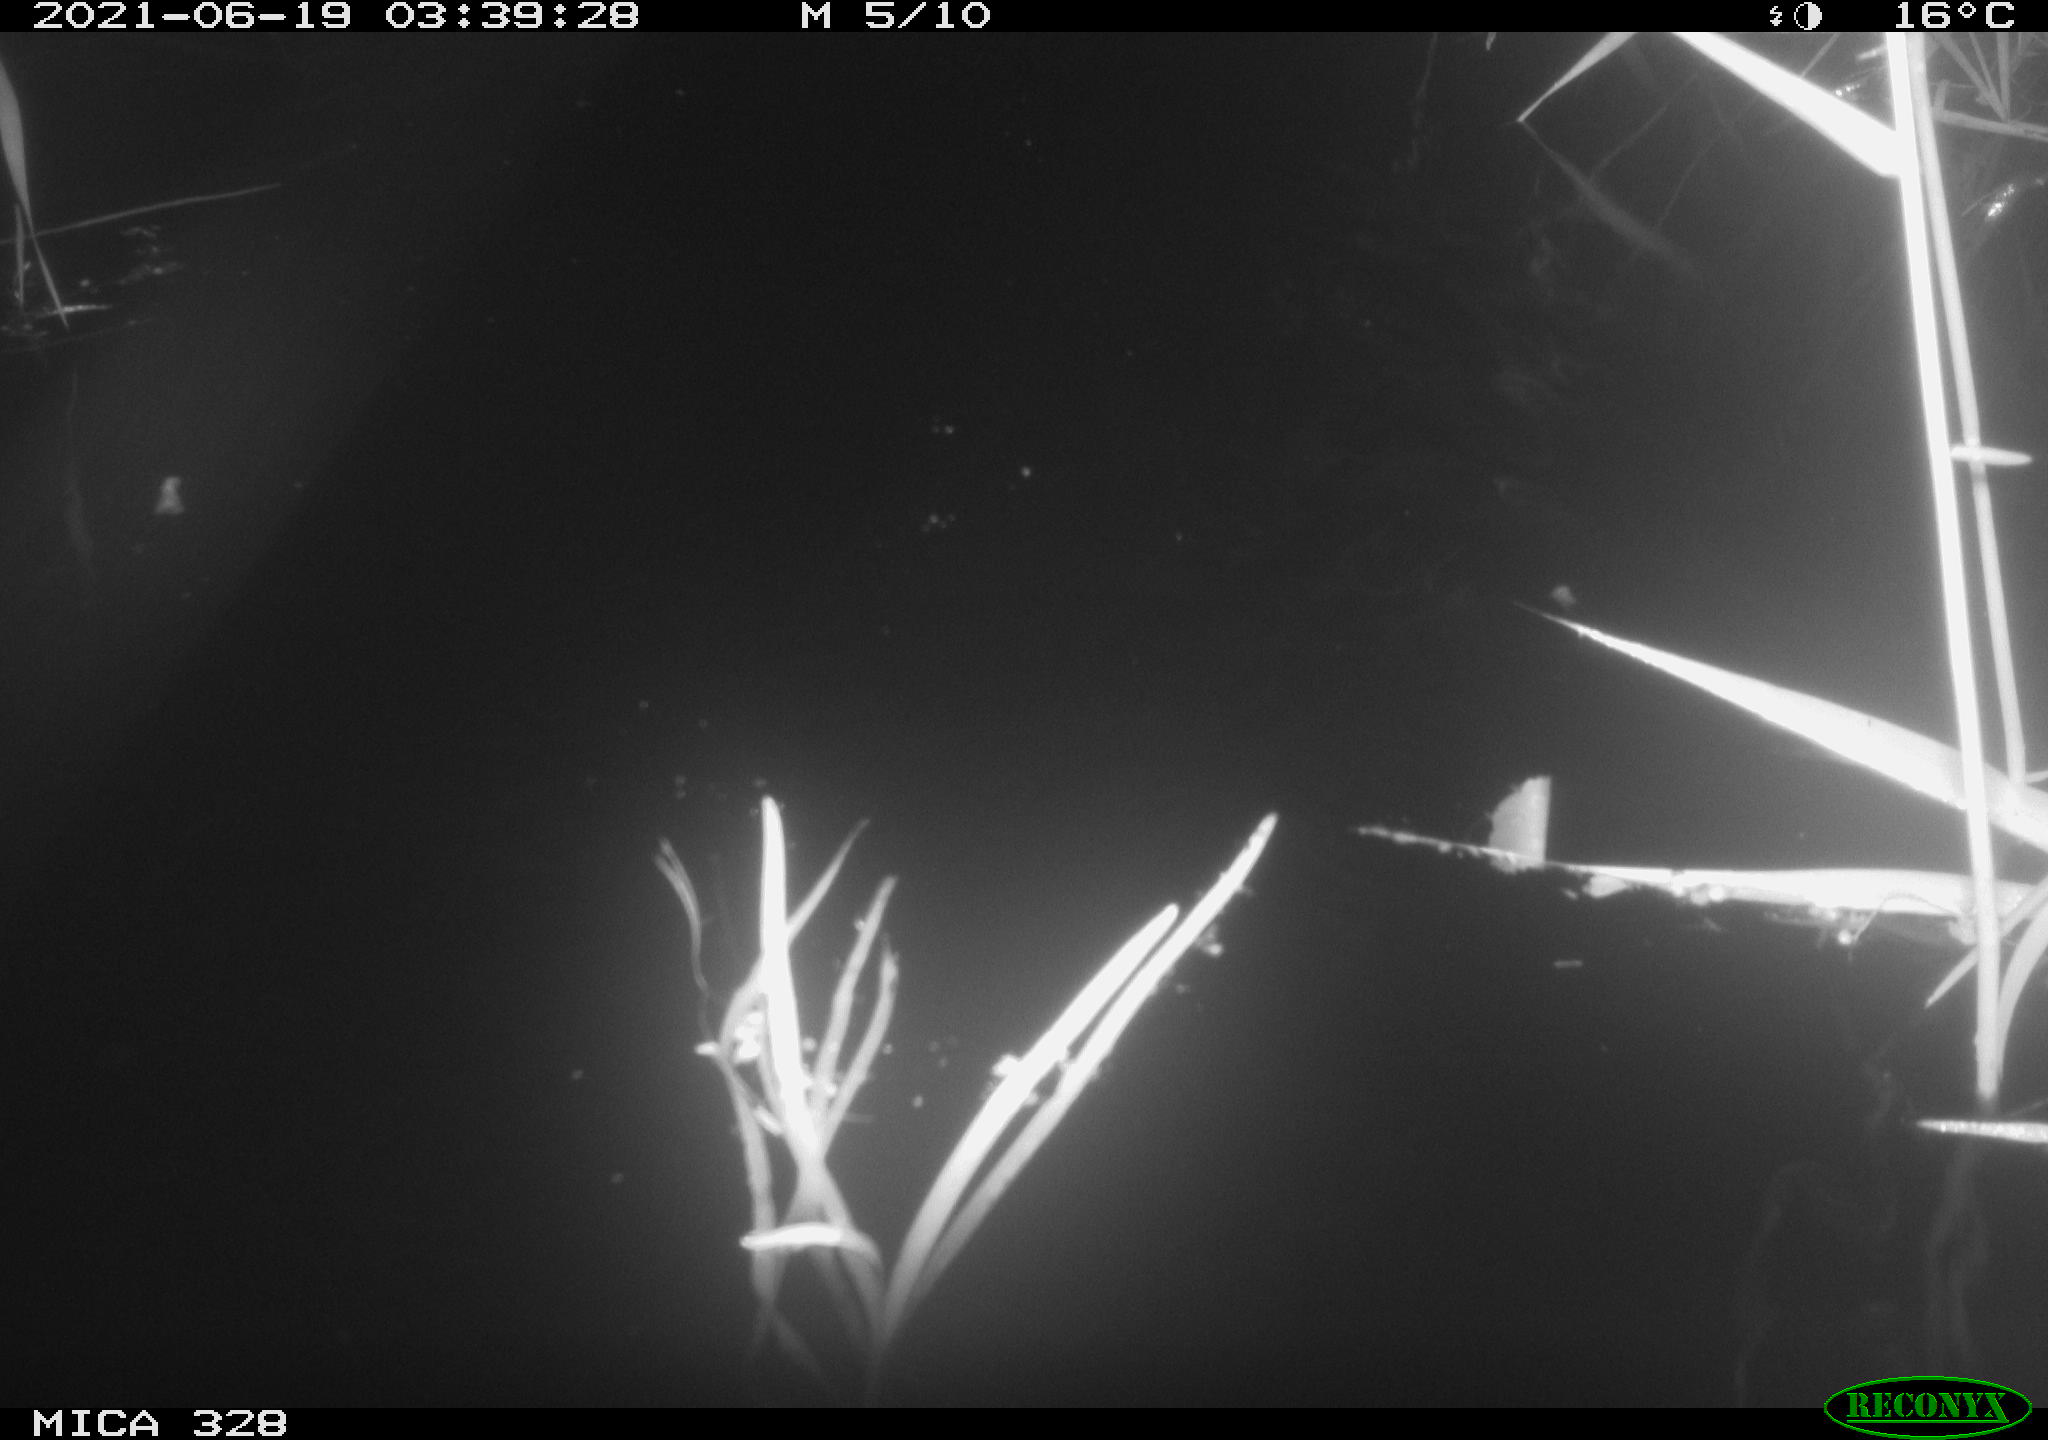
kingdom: Animalia
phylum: Chordata
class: Mammalia
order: Rodentia
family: Cricetidae
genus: Ondatra
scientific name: Ondatra zibethicus
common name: Muskrat
